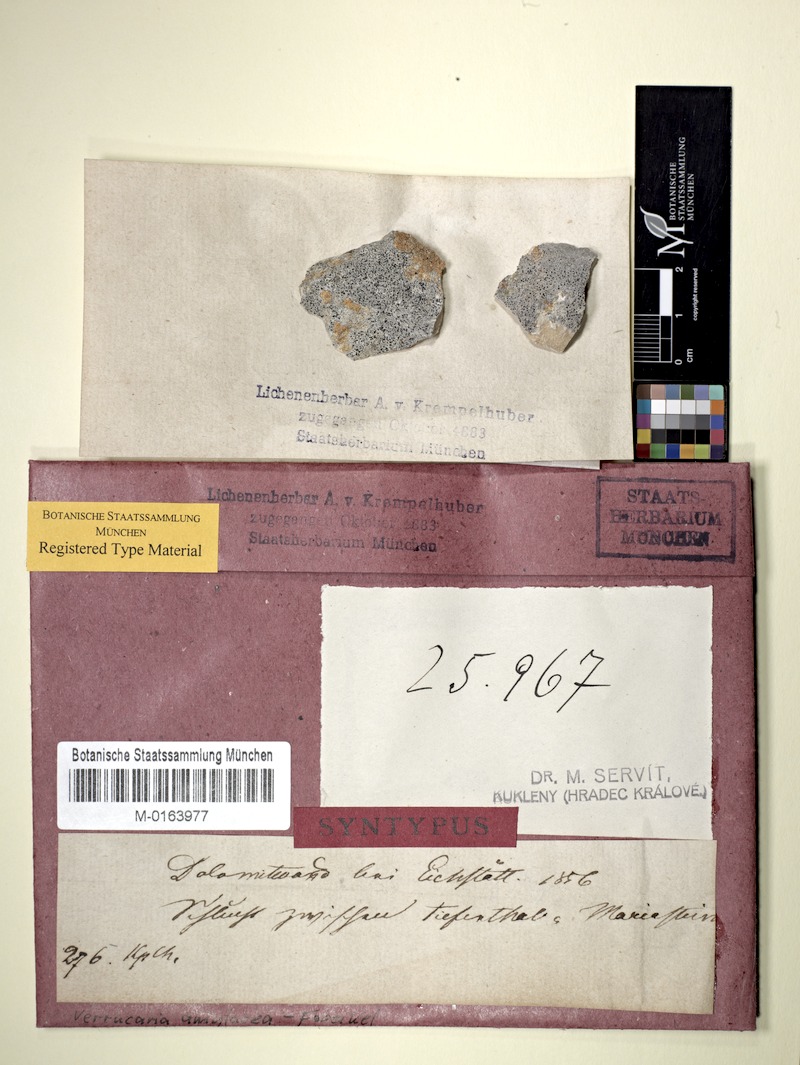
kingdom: Fungi
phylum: Ascomycota
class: Eurotiomycetes
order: Verrucariales
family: Verrucariaceae
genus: Verrucaria
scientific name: Verrucaria amylacea
